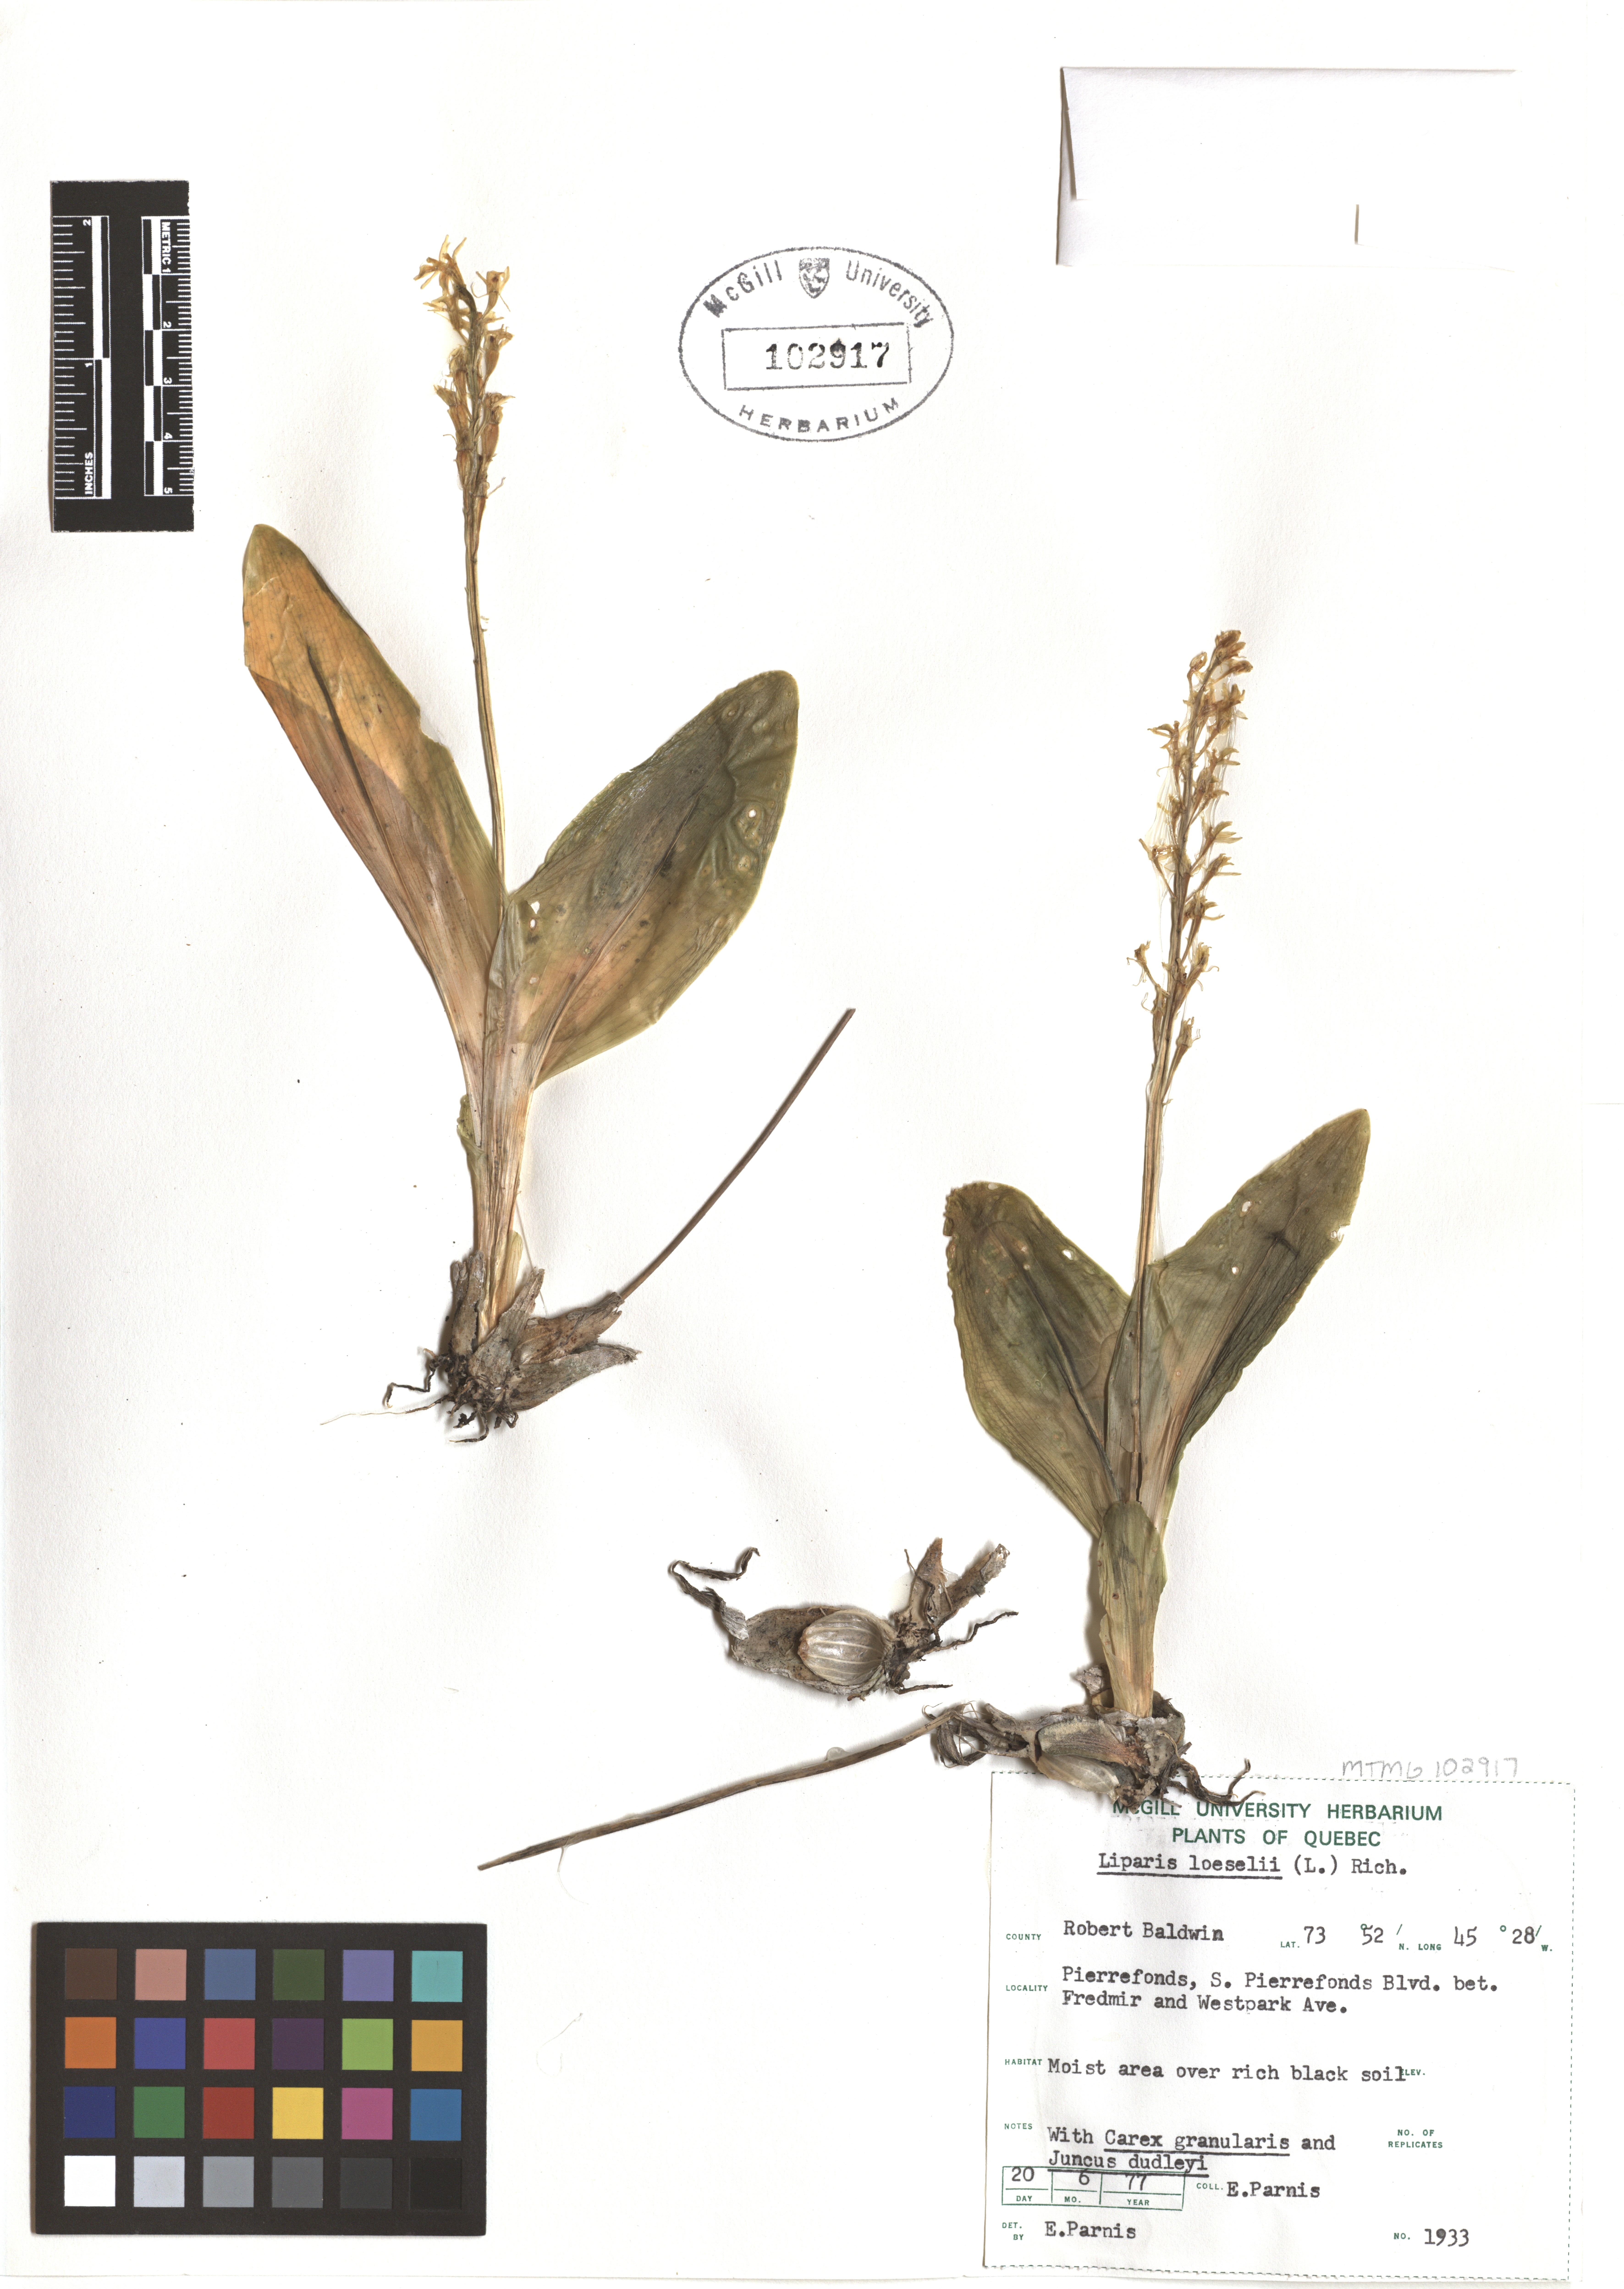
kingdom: Animalia
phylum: Arthropoda
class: Insecta
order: Coleoptera
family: Curculionidae
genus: Liparis
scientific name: Liparis loeselii
